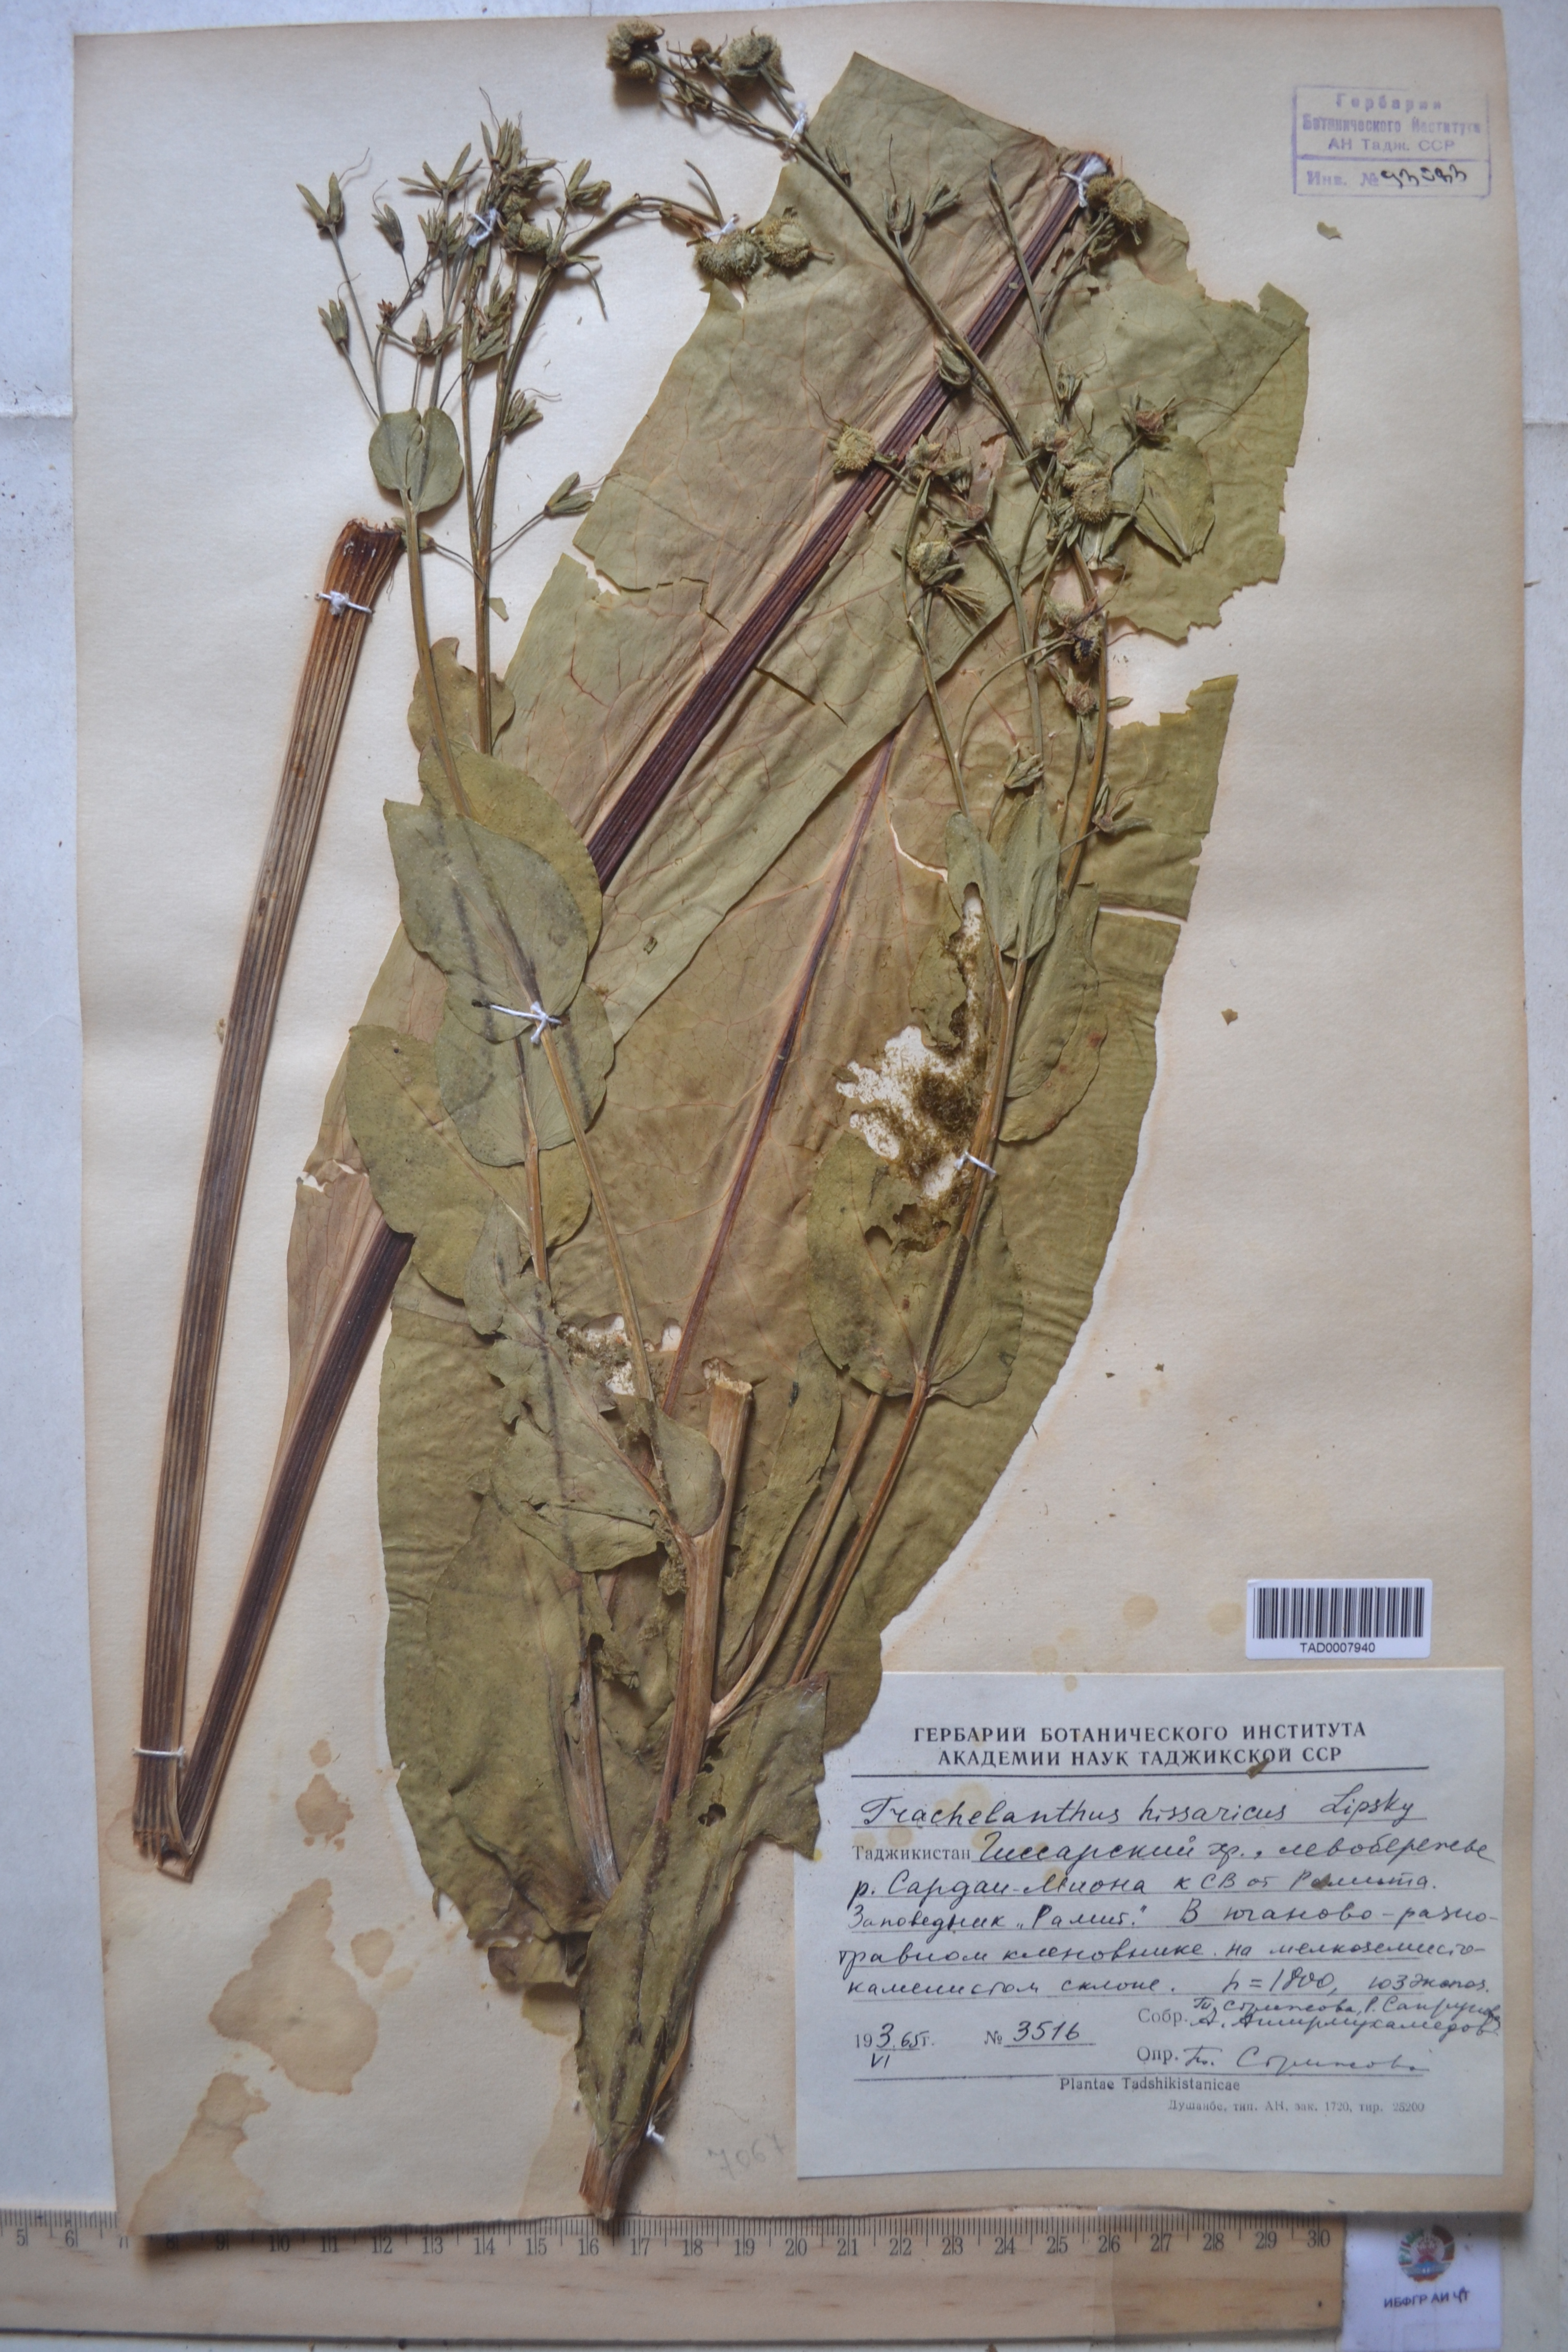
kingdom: Plantae
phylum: Tracheophyta
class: Magnoliopsida
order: Boraginales
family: Boraginaceae
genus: Lindelofia
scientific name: Lindelofia hissarica
